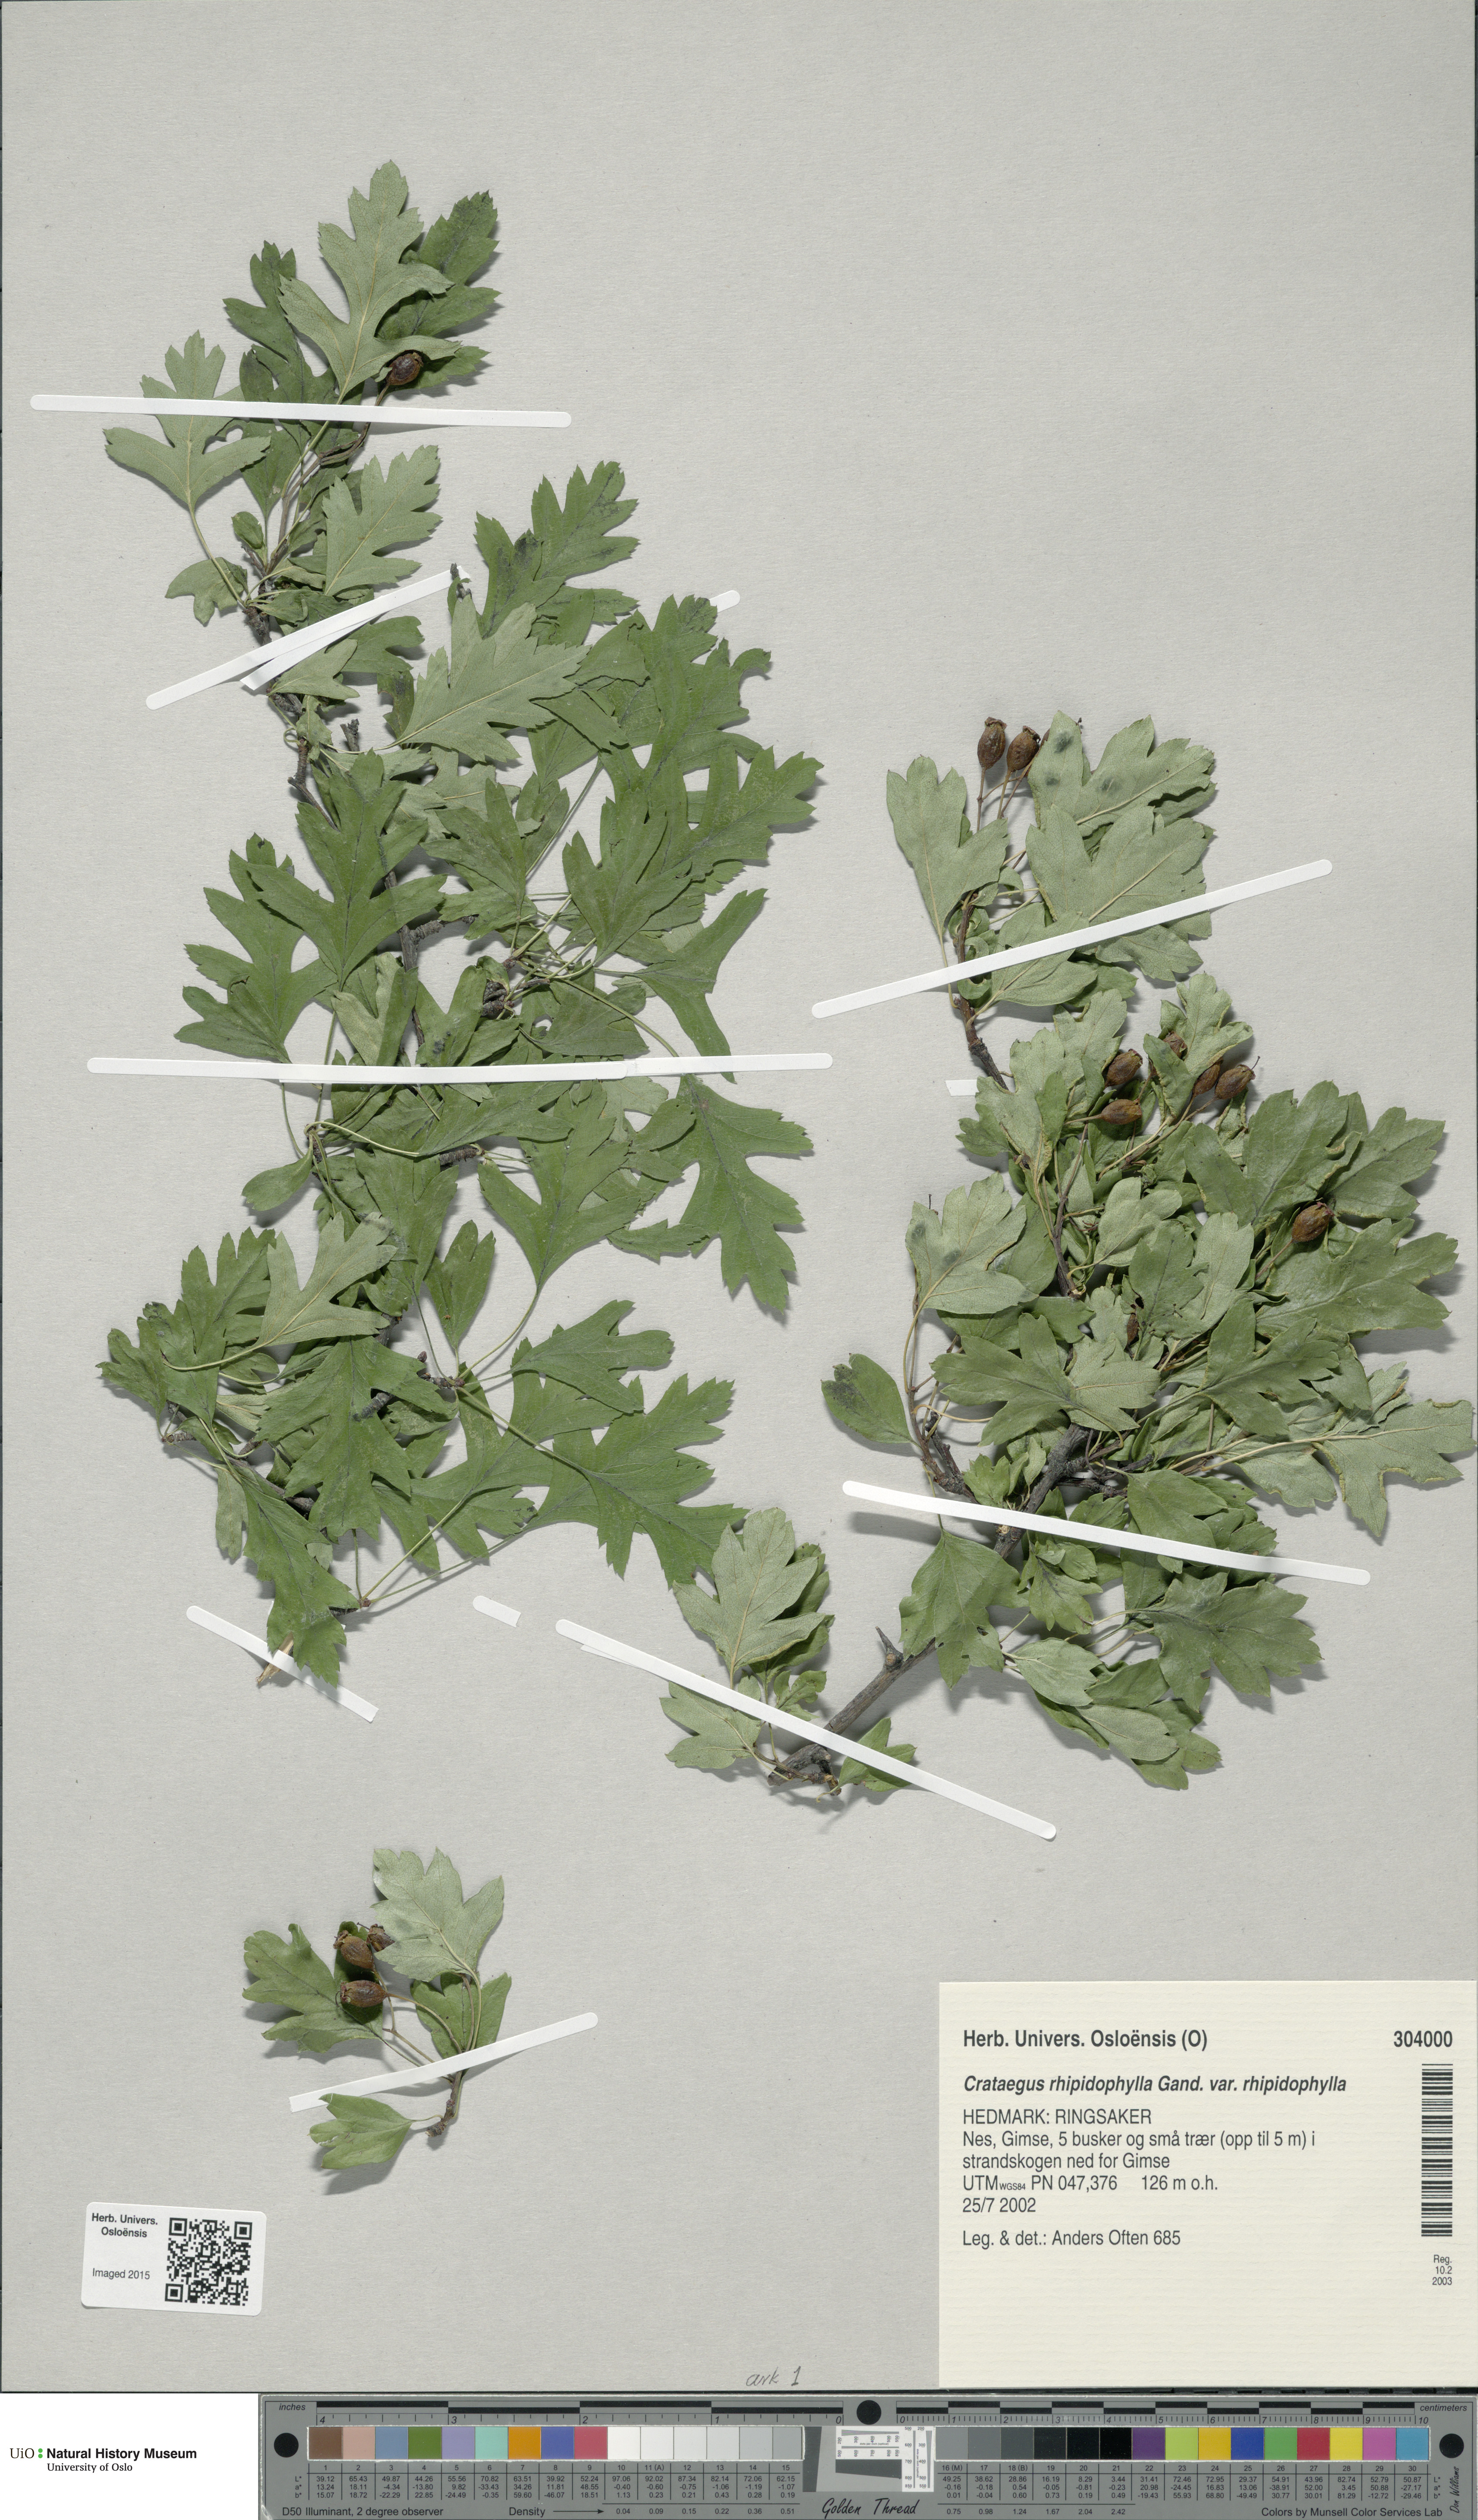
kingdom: Plantae
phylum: Tracheophyta
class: Magnoliopsida
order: Rosales
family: Rosaceae
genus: Crataegus
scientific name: Crataegus rhipidophylla
